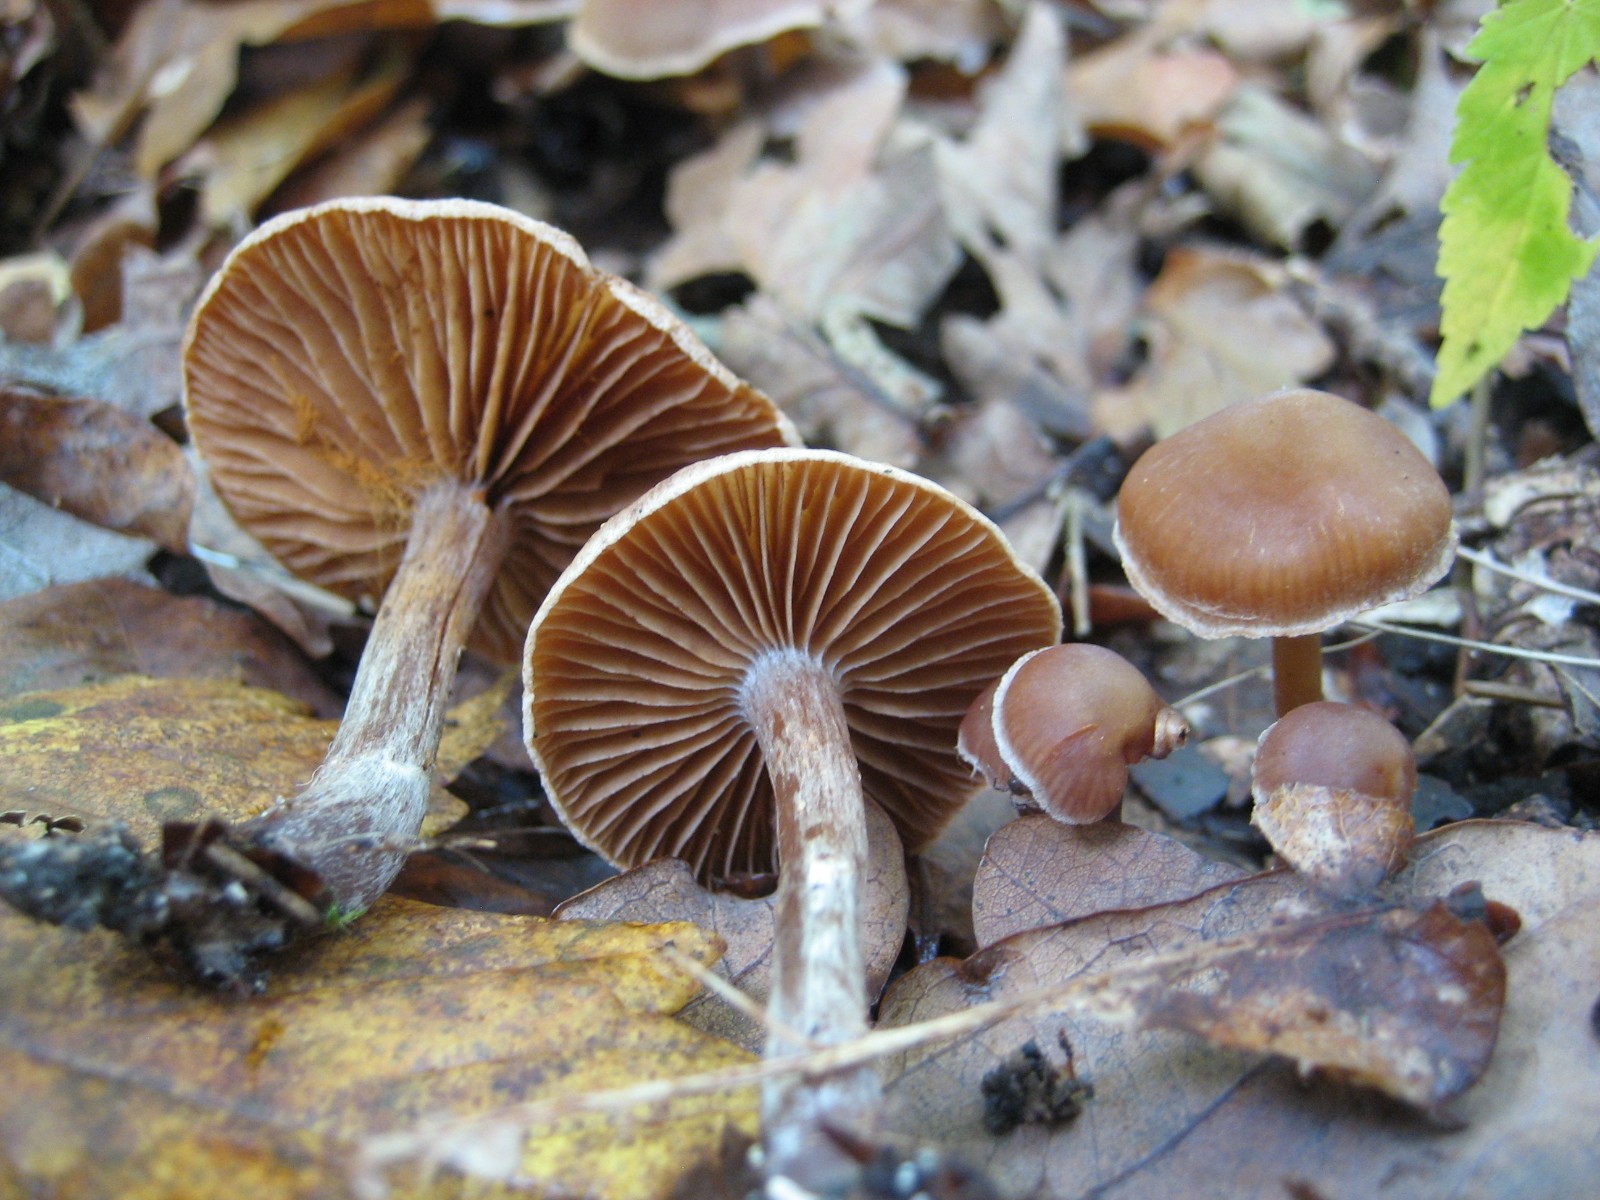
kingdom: Fungi
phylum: Basidiomycota
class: Agaricomycetes
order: Agaricales
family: Cortinariaceae
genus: Cortinarius
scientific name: Cortinarius
